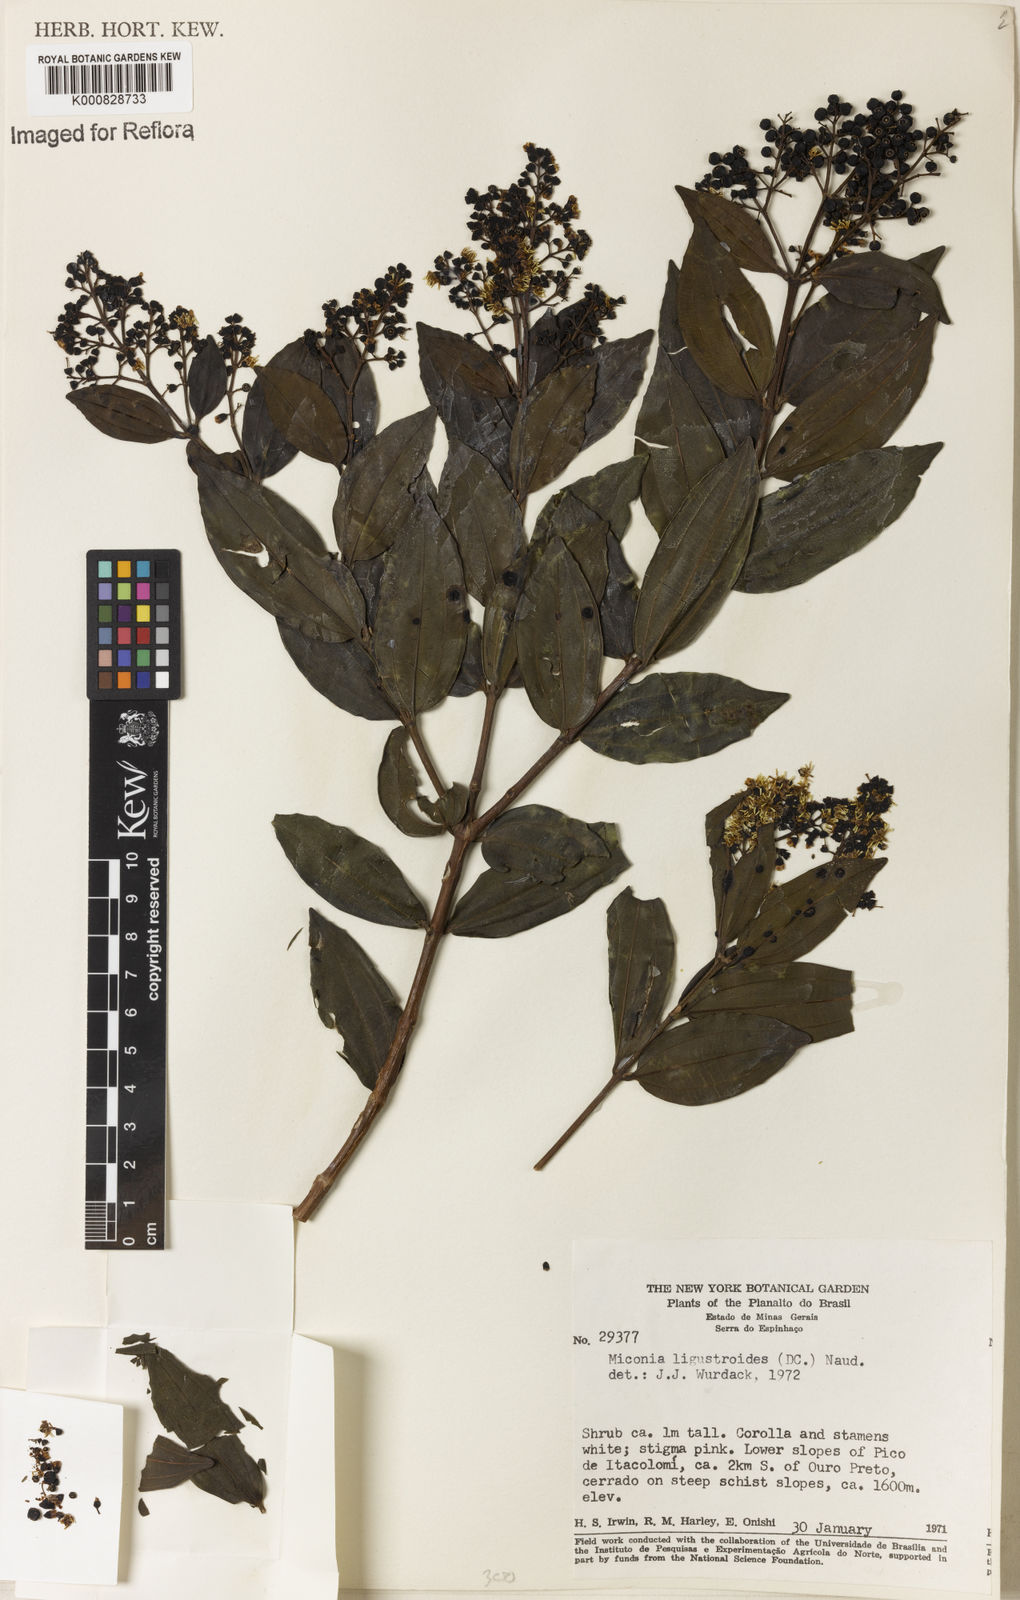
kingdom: Plantae
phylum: Tracheophyta
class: Magnoliopsida
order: Myrtales
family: Melastomataceae
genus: Miconia
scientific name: Miconia ligustroides
